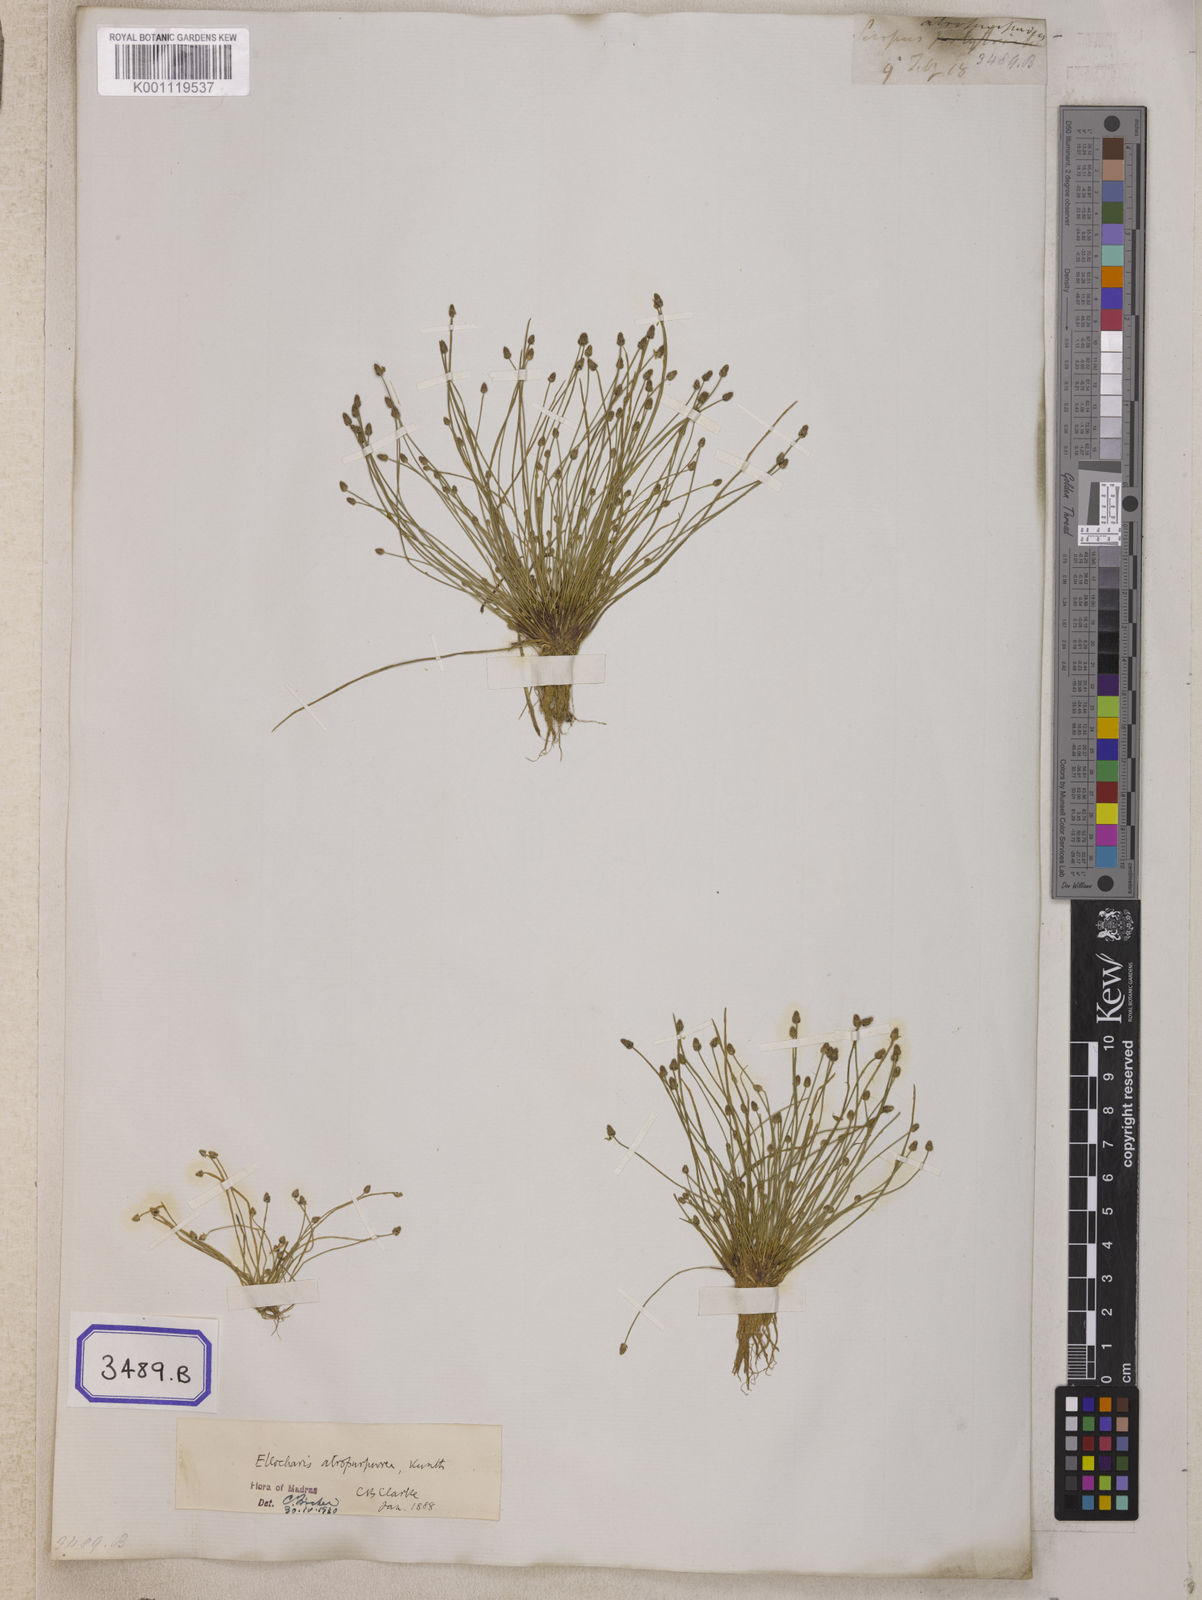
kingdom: Plantae
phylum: Tracheophyta
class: Liliopsida
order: Poales
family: Cyperaceae
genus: Isolepis
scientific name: Isolepis
